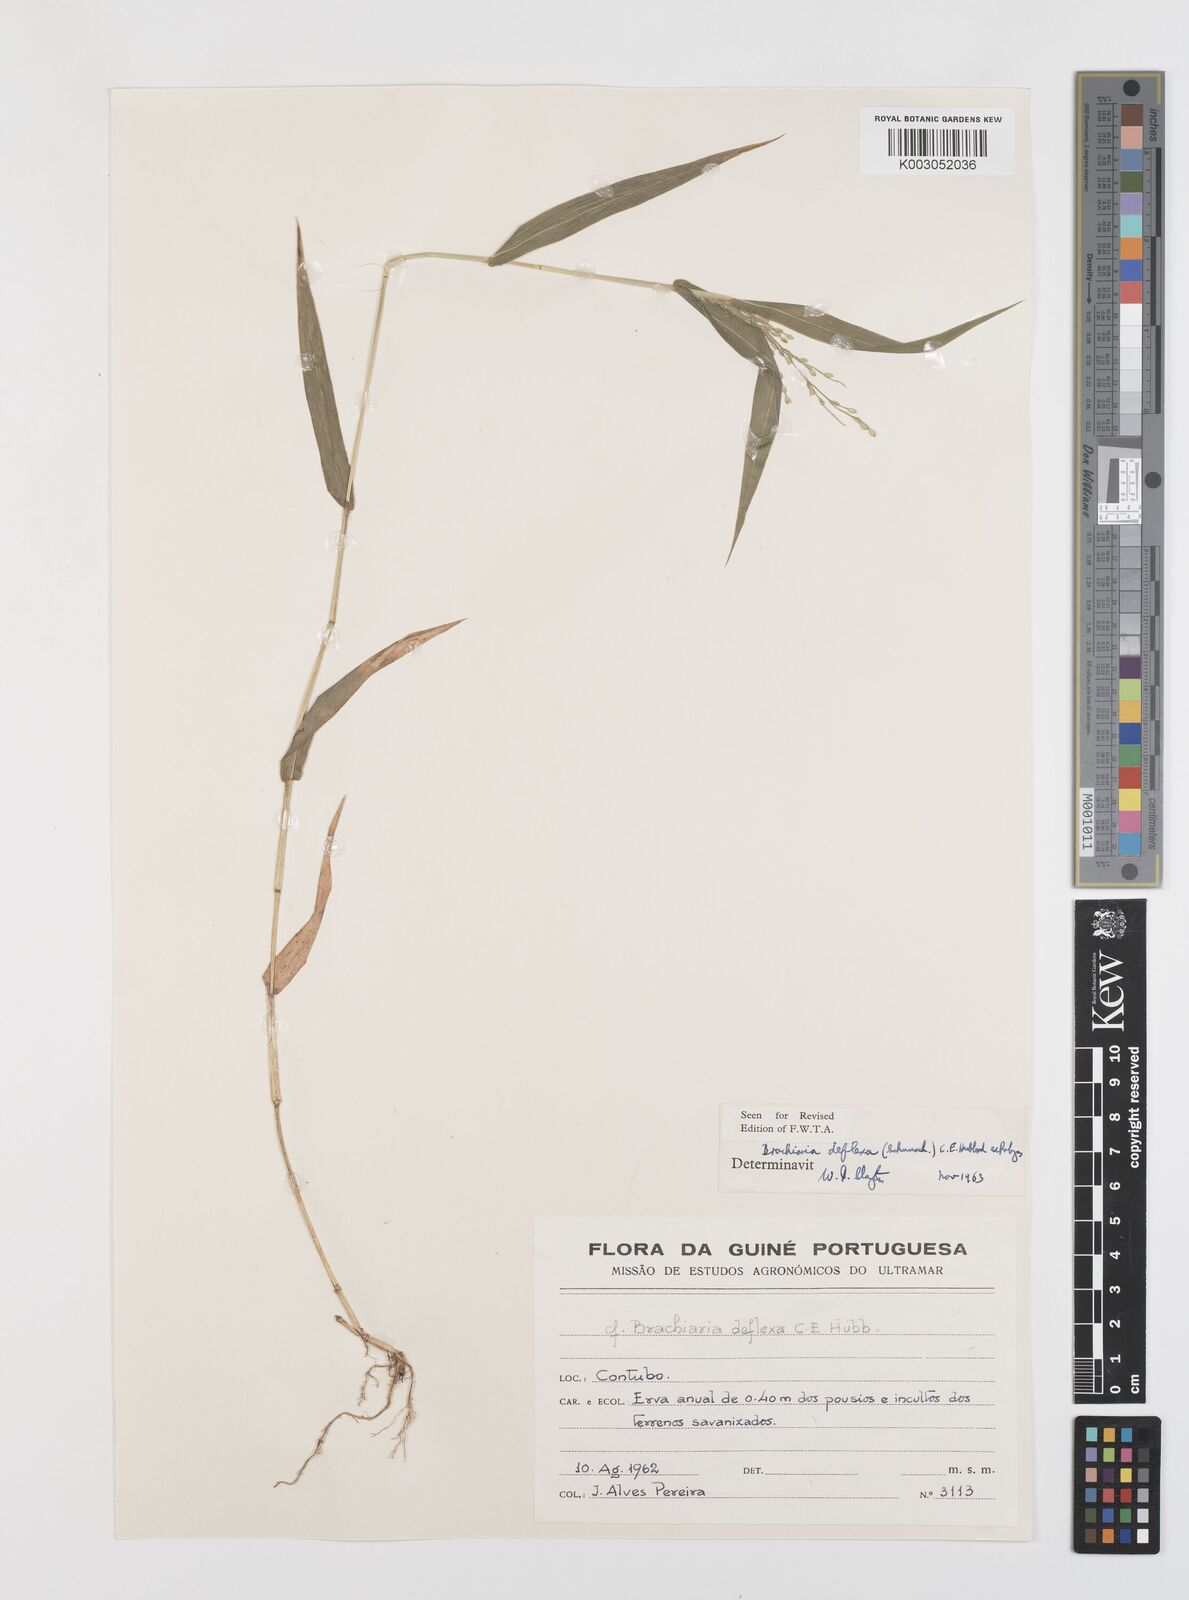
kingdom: Plantae
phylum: Tracheophyta
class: Liliopsida
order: Poales
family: Poaceae
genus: Urochloa
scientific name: Urochloa deflexa
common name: Guinea millet
